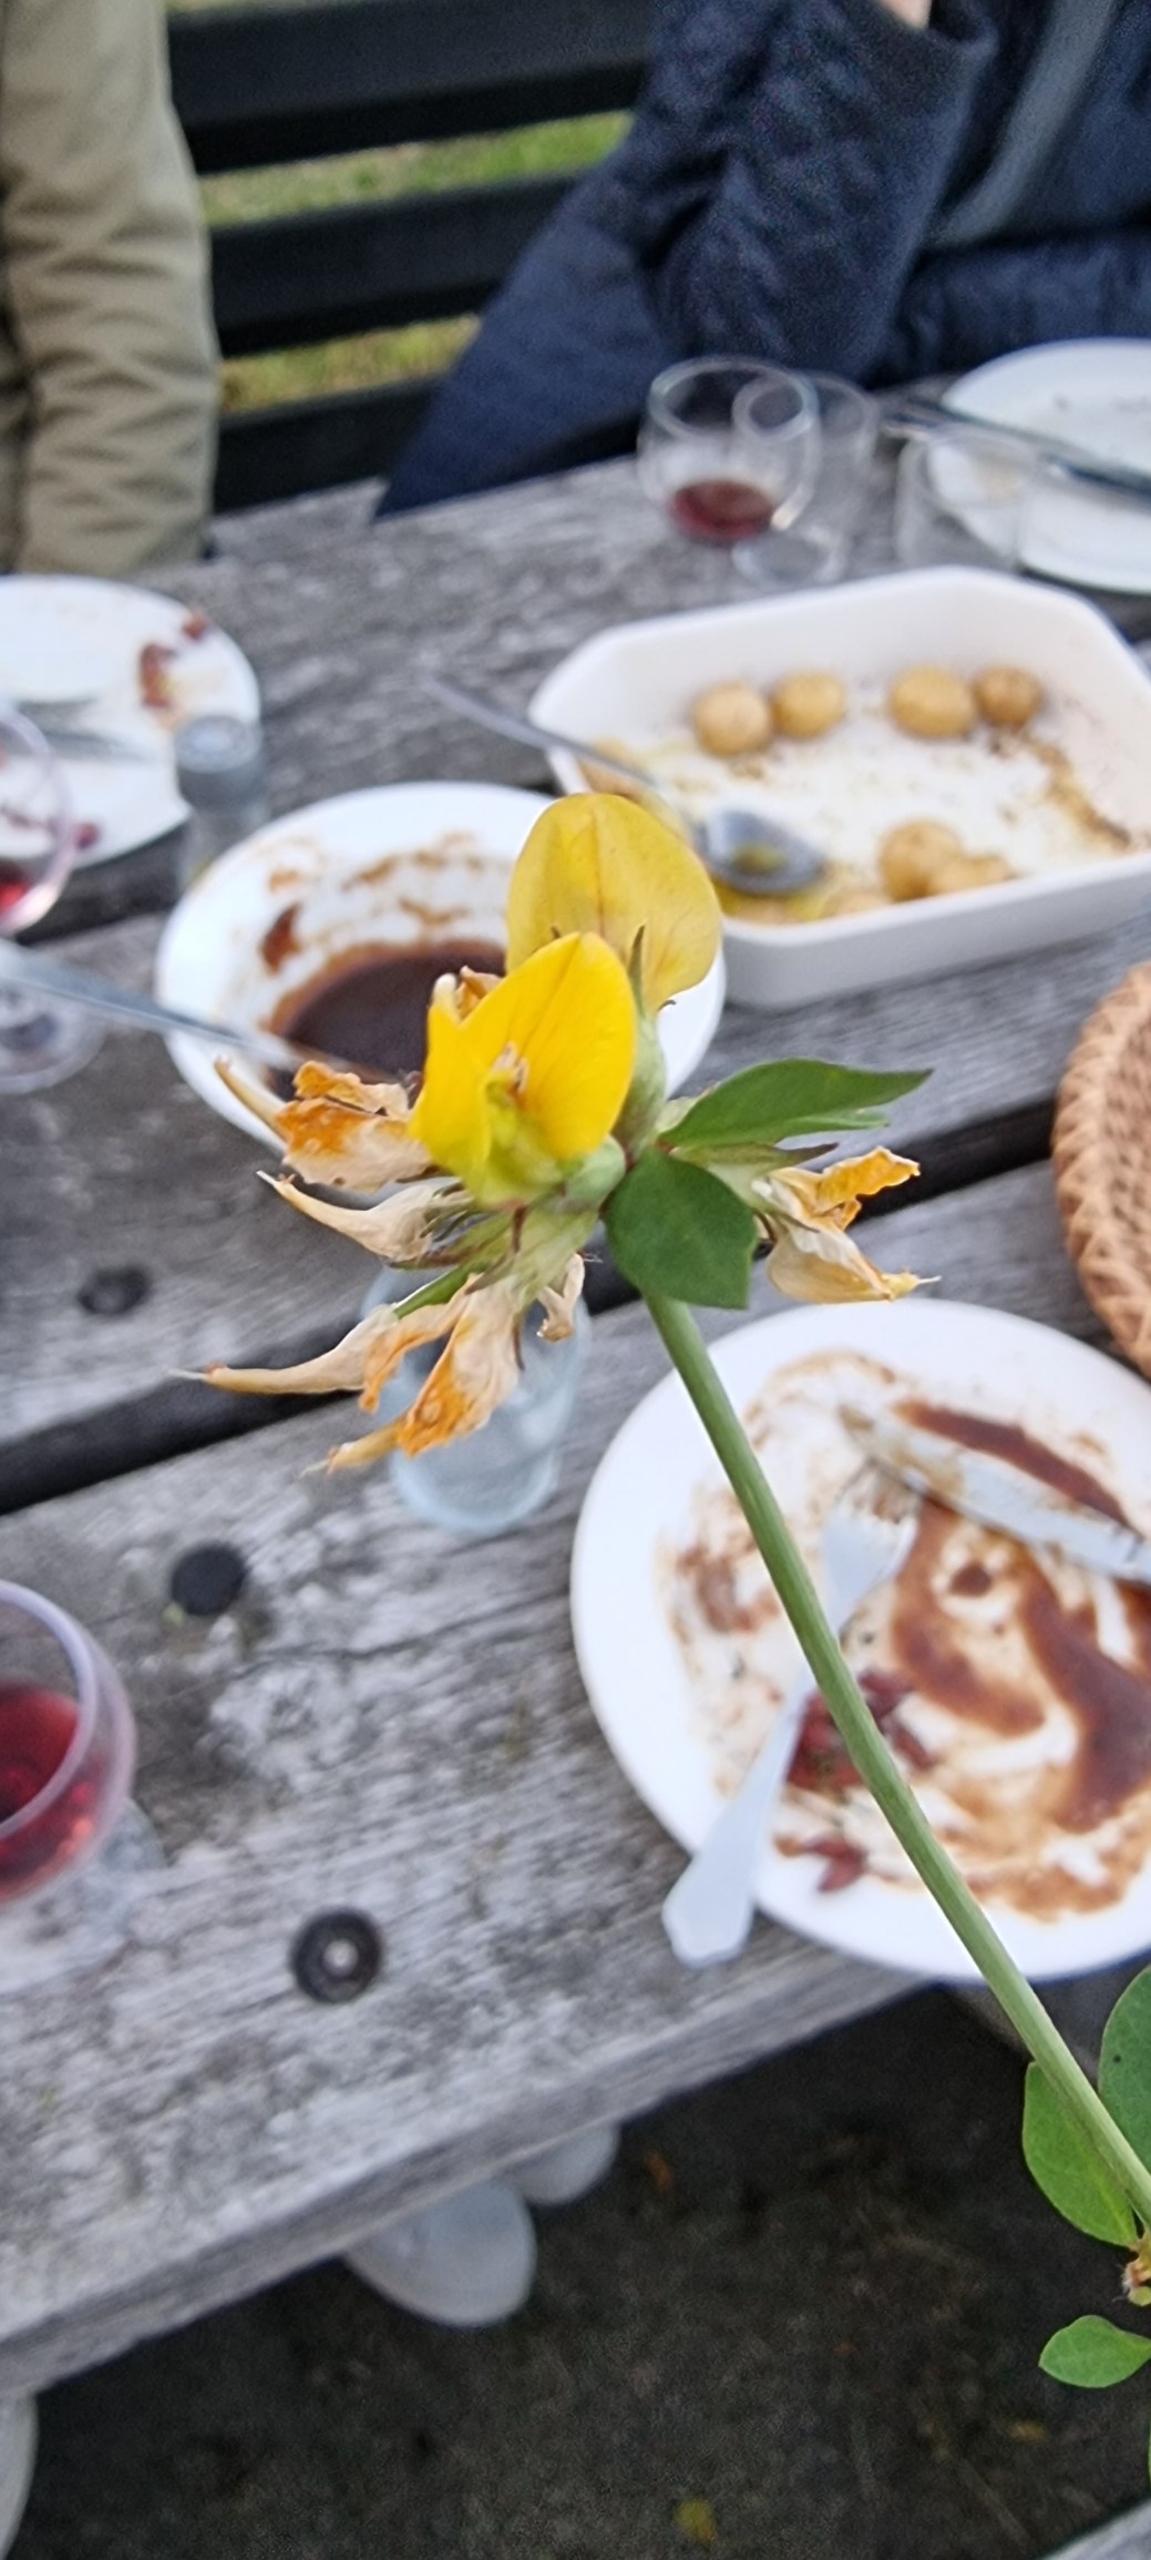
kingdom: Plantae
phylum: Tracheophyta
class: Magnoliopsida
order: Fabales
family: Fabaceae
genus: Lotus
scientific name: Lotus corniculatus
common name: Almindelig kællingetand
